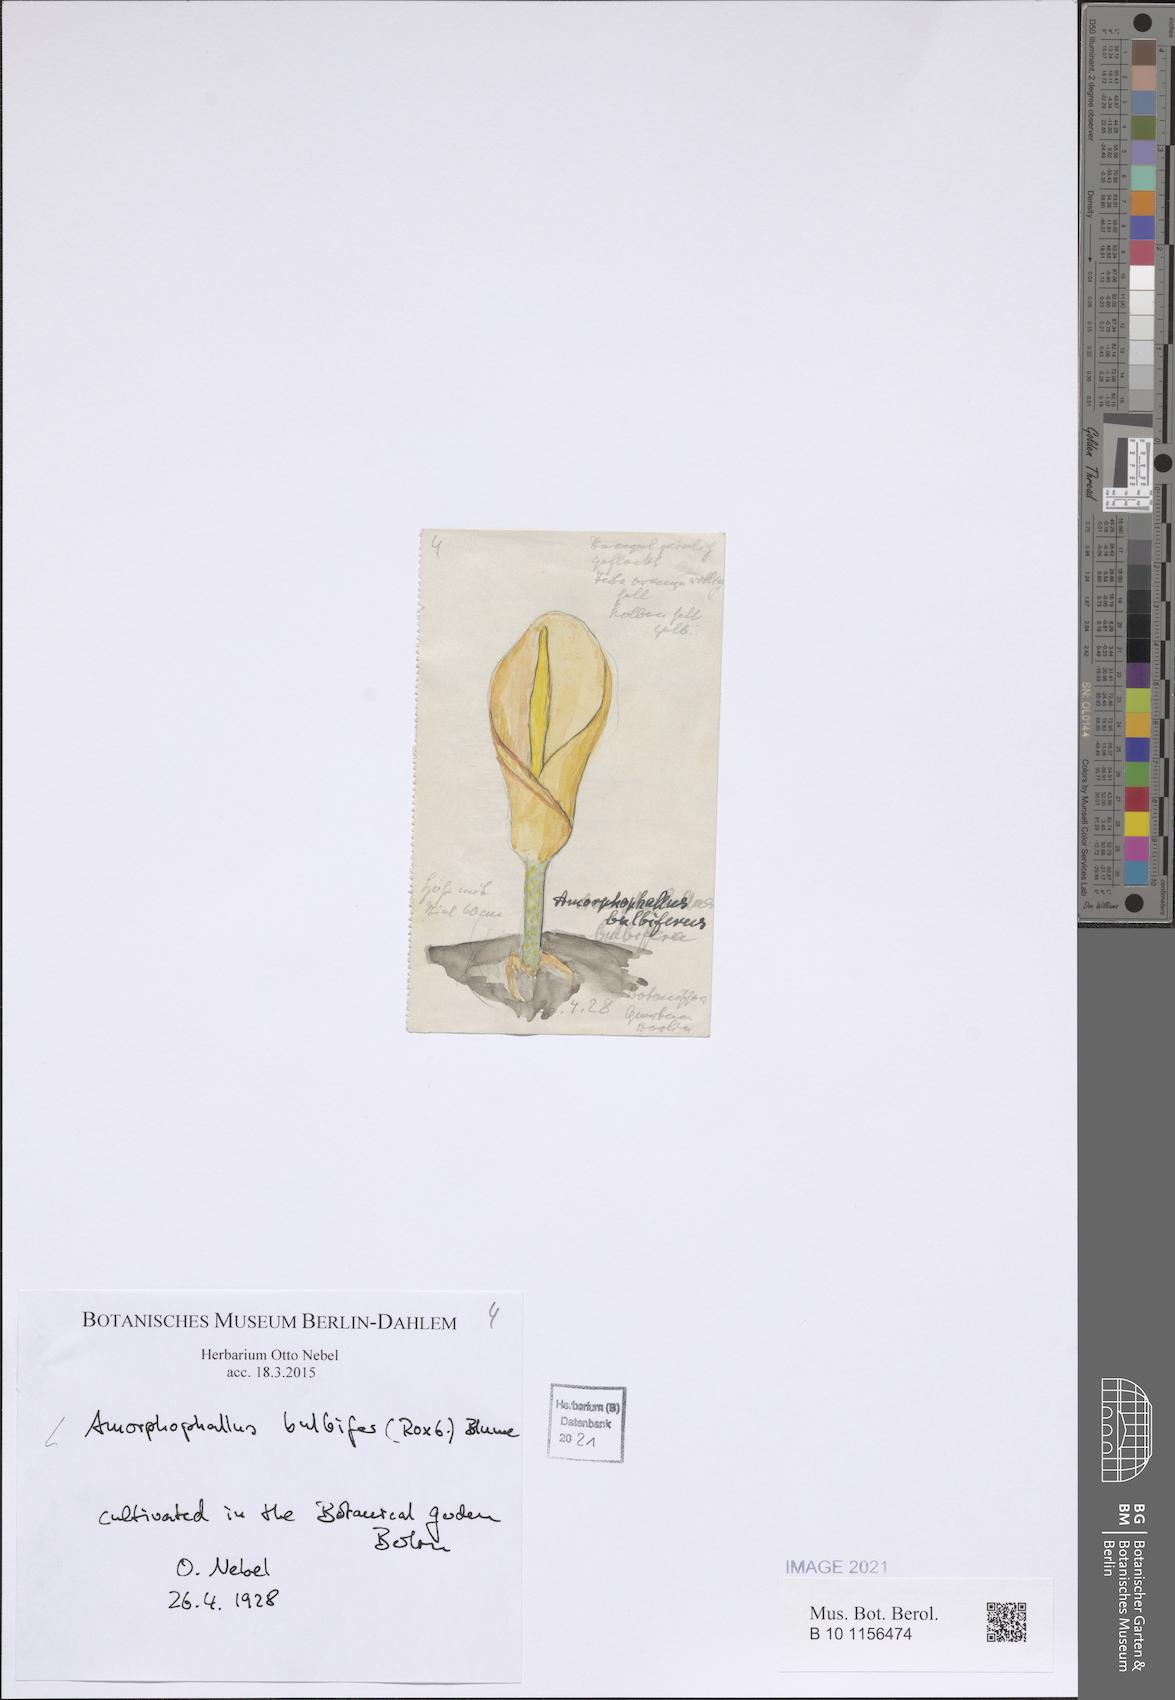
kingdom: Plantae
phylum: Tracheophyta
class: Liliopsida
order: Alismatales
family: Araceae
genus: Amorphophallus
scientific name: Amorphophallus bulbifer
